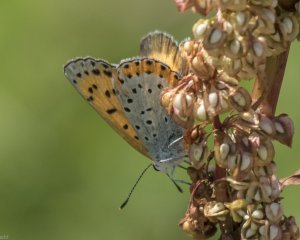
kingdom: Animalia
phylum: Arthropoda
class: Insecta
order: Lepidoptera
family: Sesiidae
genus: Sesia
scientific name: Sesia Lycaena hyllus
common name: Bronze Copper
